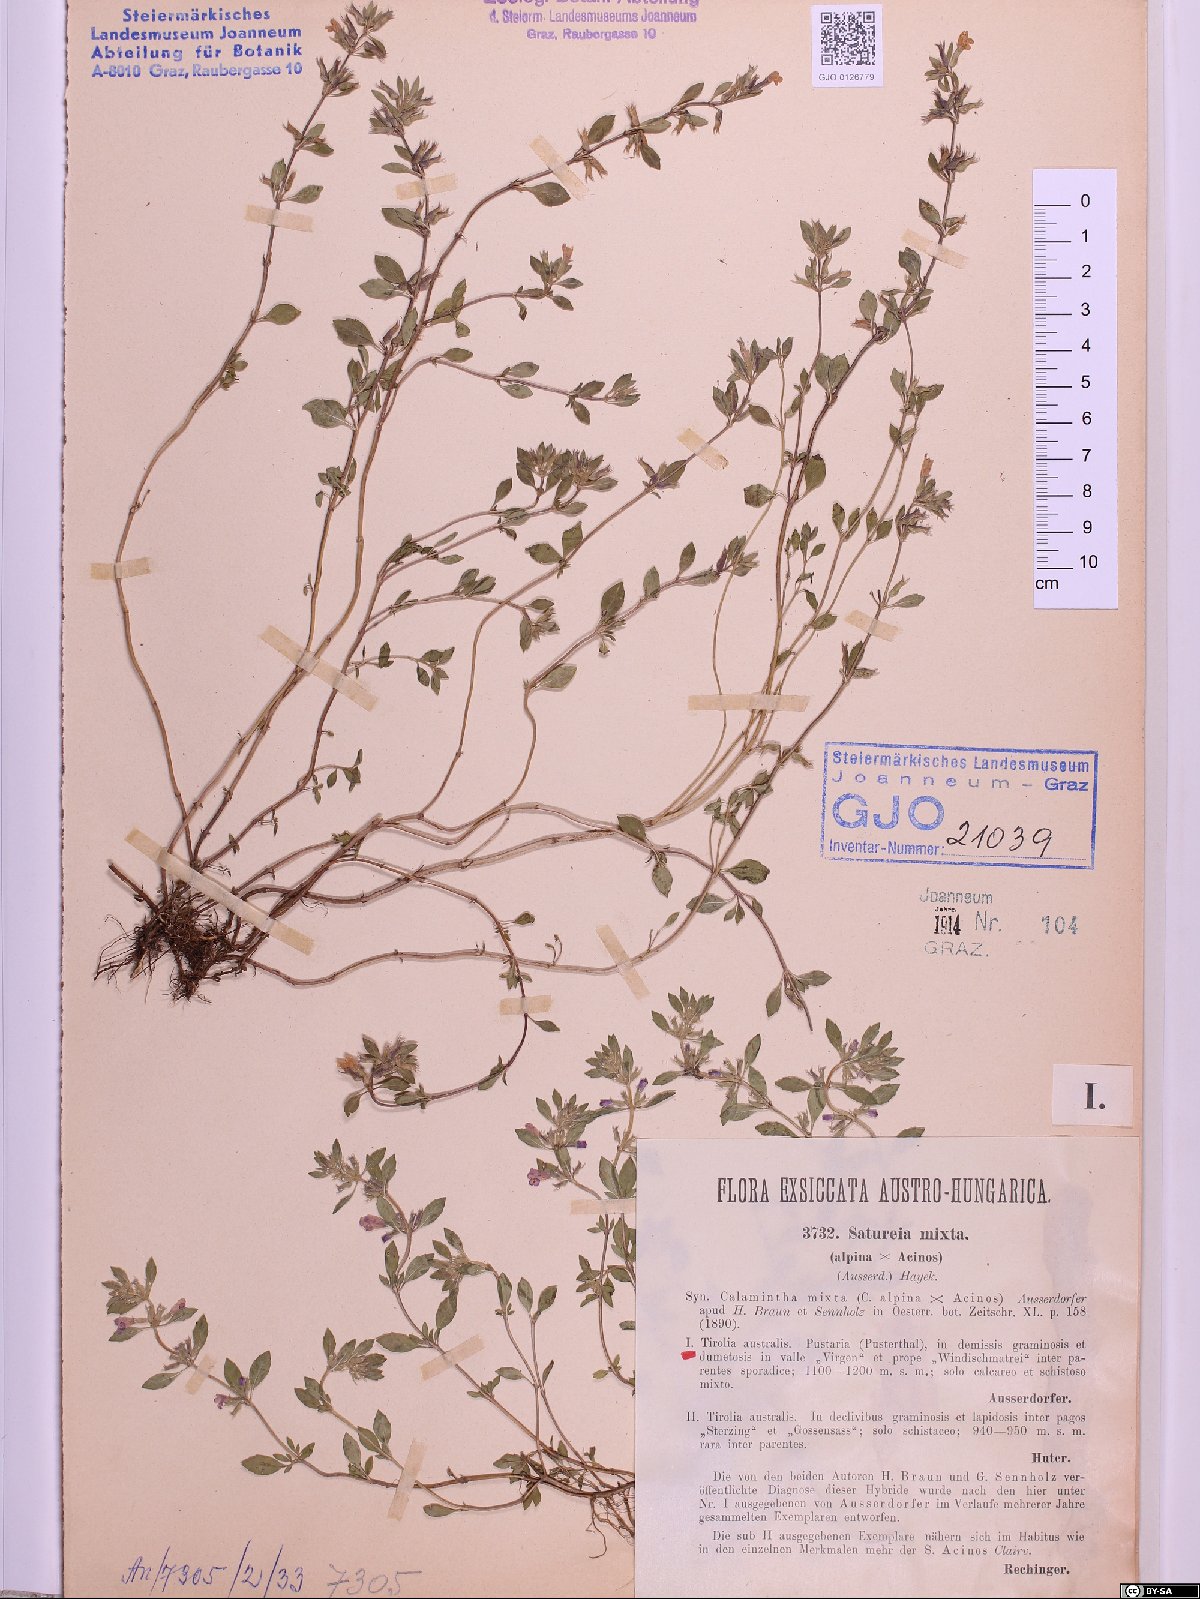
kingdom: Plantae
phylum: Tracheophyta
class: Magnoliopsida
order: Lamiales
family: Lamiaceae
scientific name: Lamiaceae
